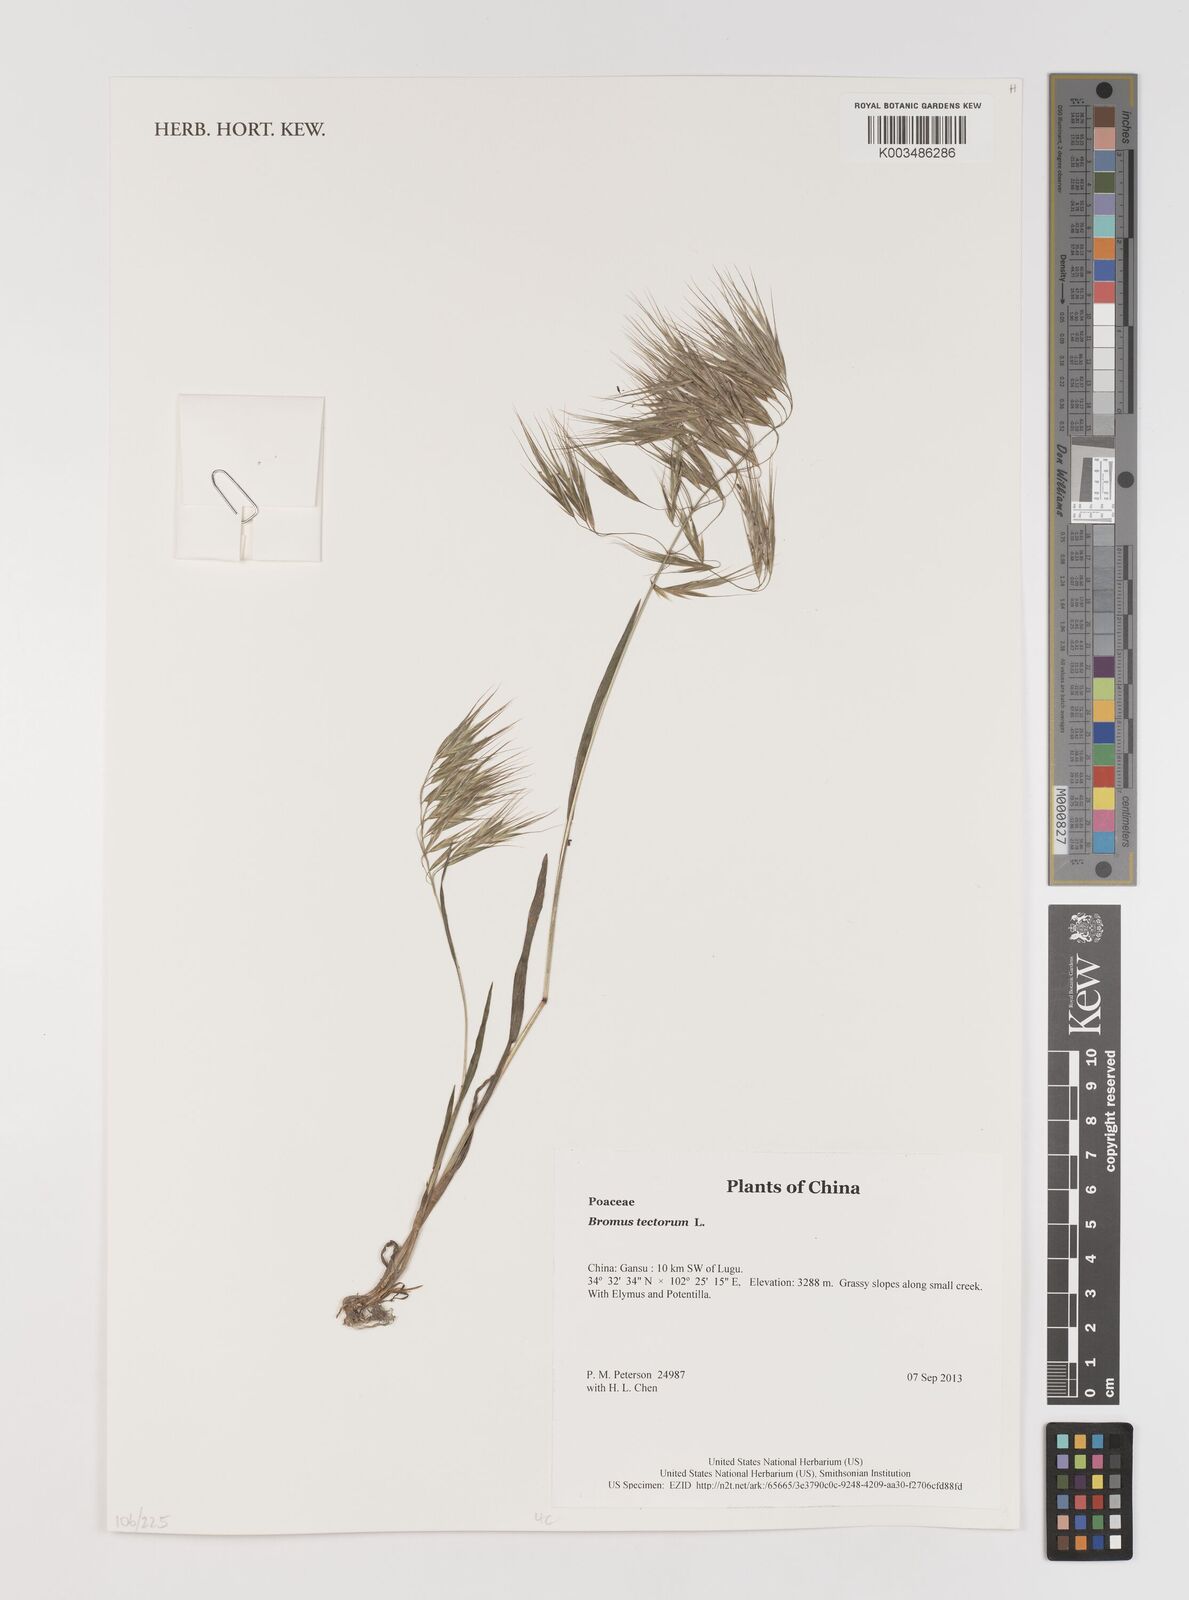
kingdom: Plantae
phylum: Tracheophyta
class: Liliopsida
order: Poales
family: Poaceae
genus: Bromus
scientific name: Bromus tectorum
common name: Cheatgrass
